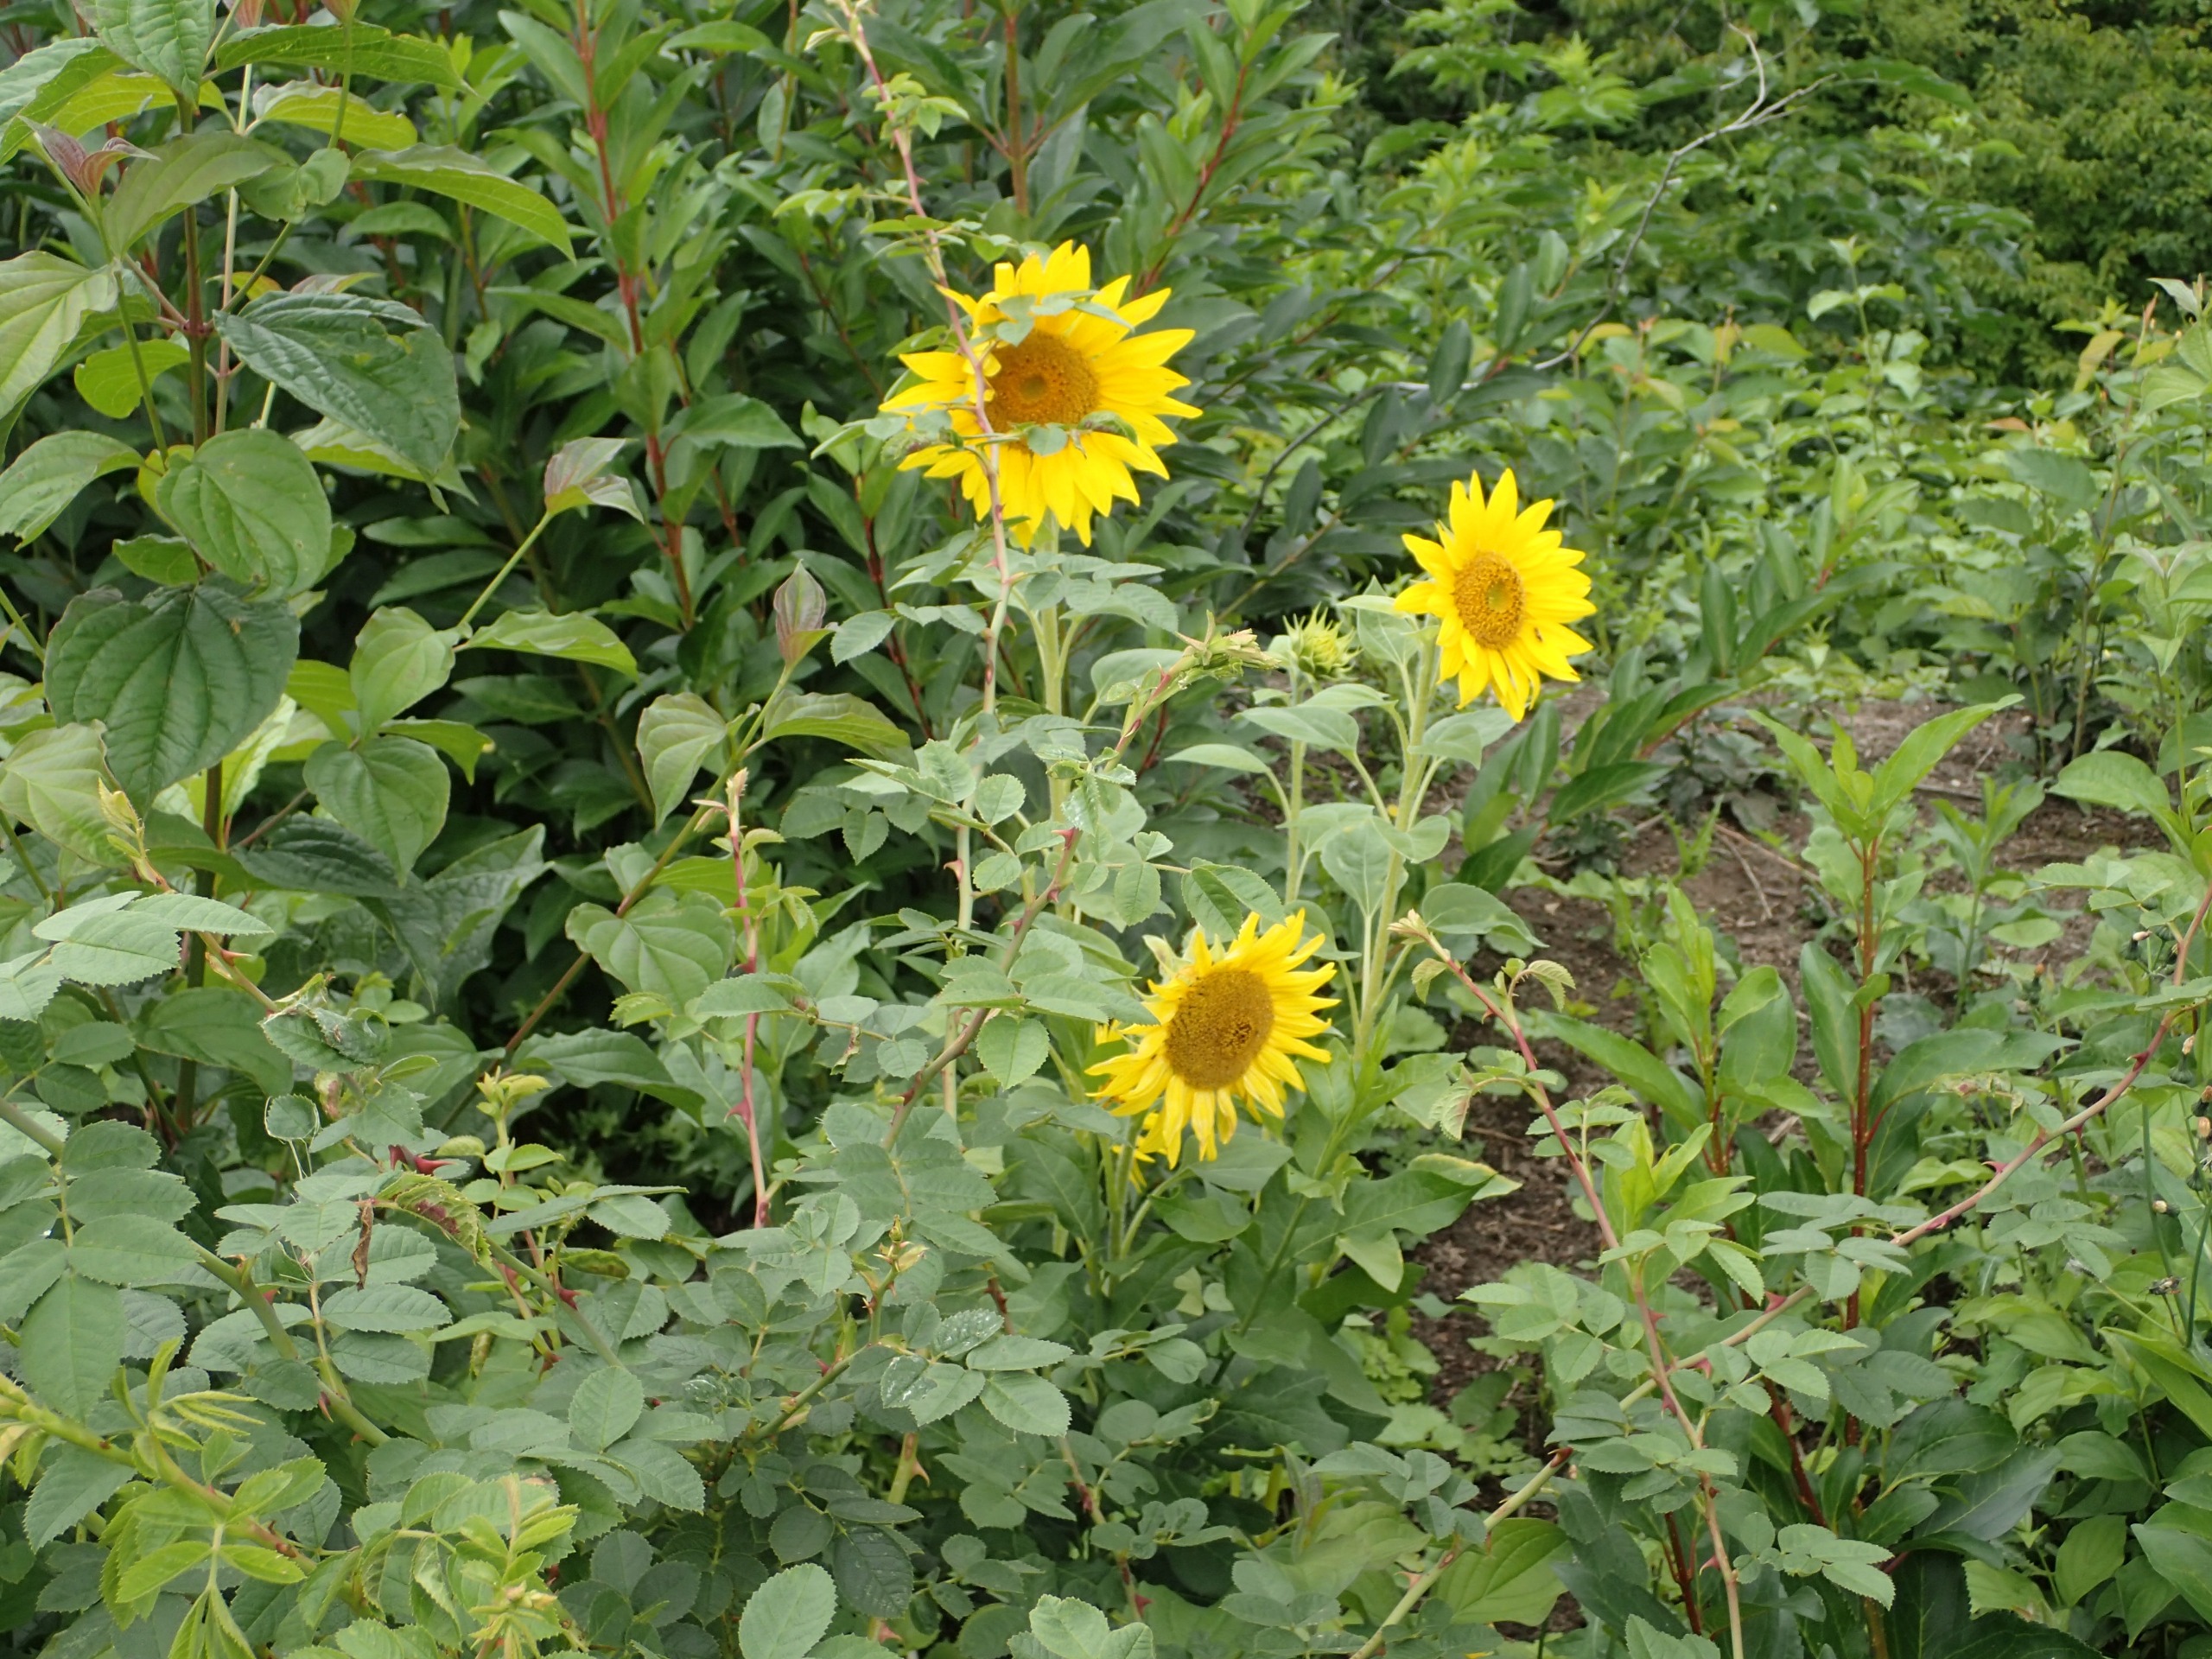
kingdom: Plantae
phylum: Tracheophyta
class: Magnoliopsida
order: Asterales
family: Asteraceae
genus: Helianthus
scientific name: Helianthus annuus
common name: Solsikke
